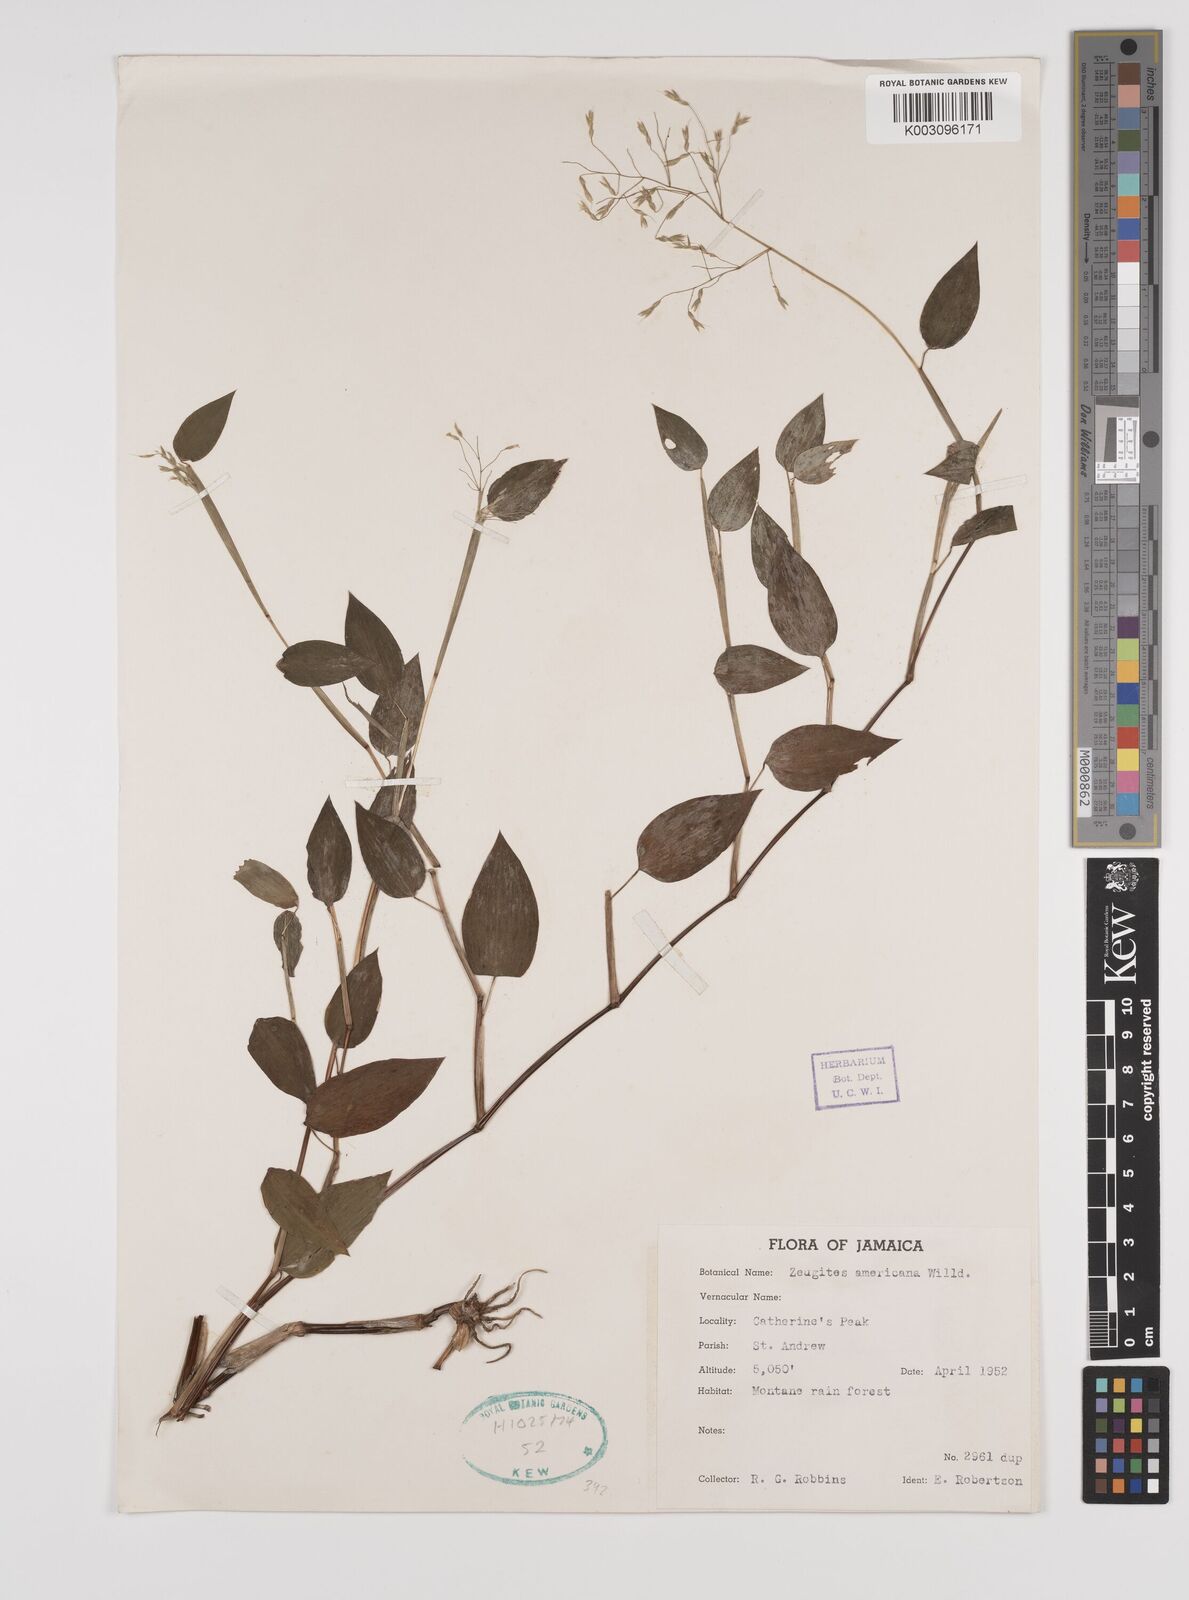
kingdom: Plantae
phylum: Tracheophyta
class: Liliopsida
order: Poales
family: Poaceae
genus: Zeugites
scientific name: Zeugites americanus
